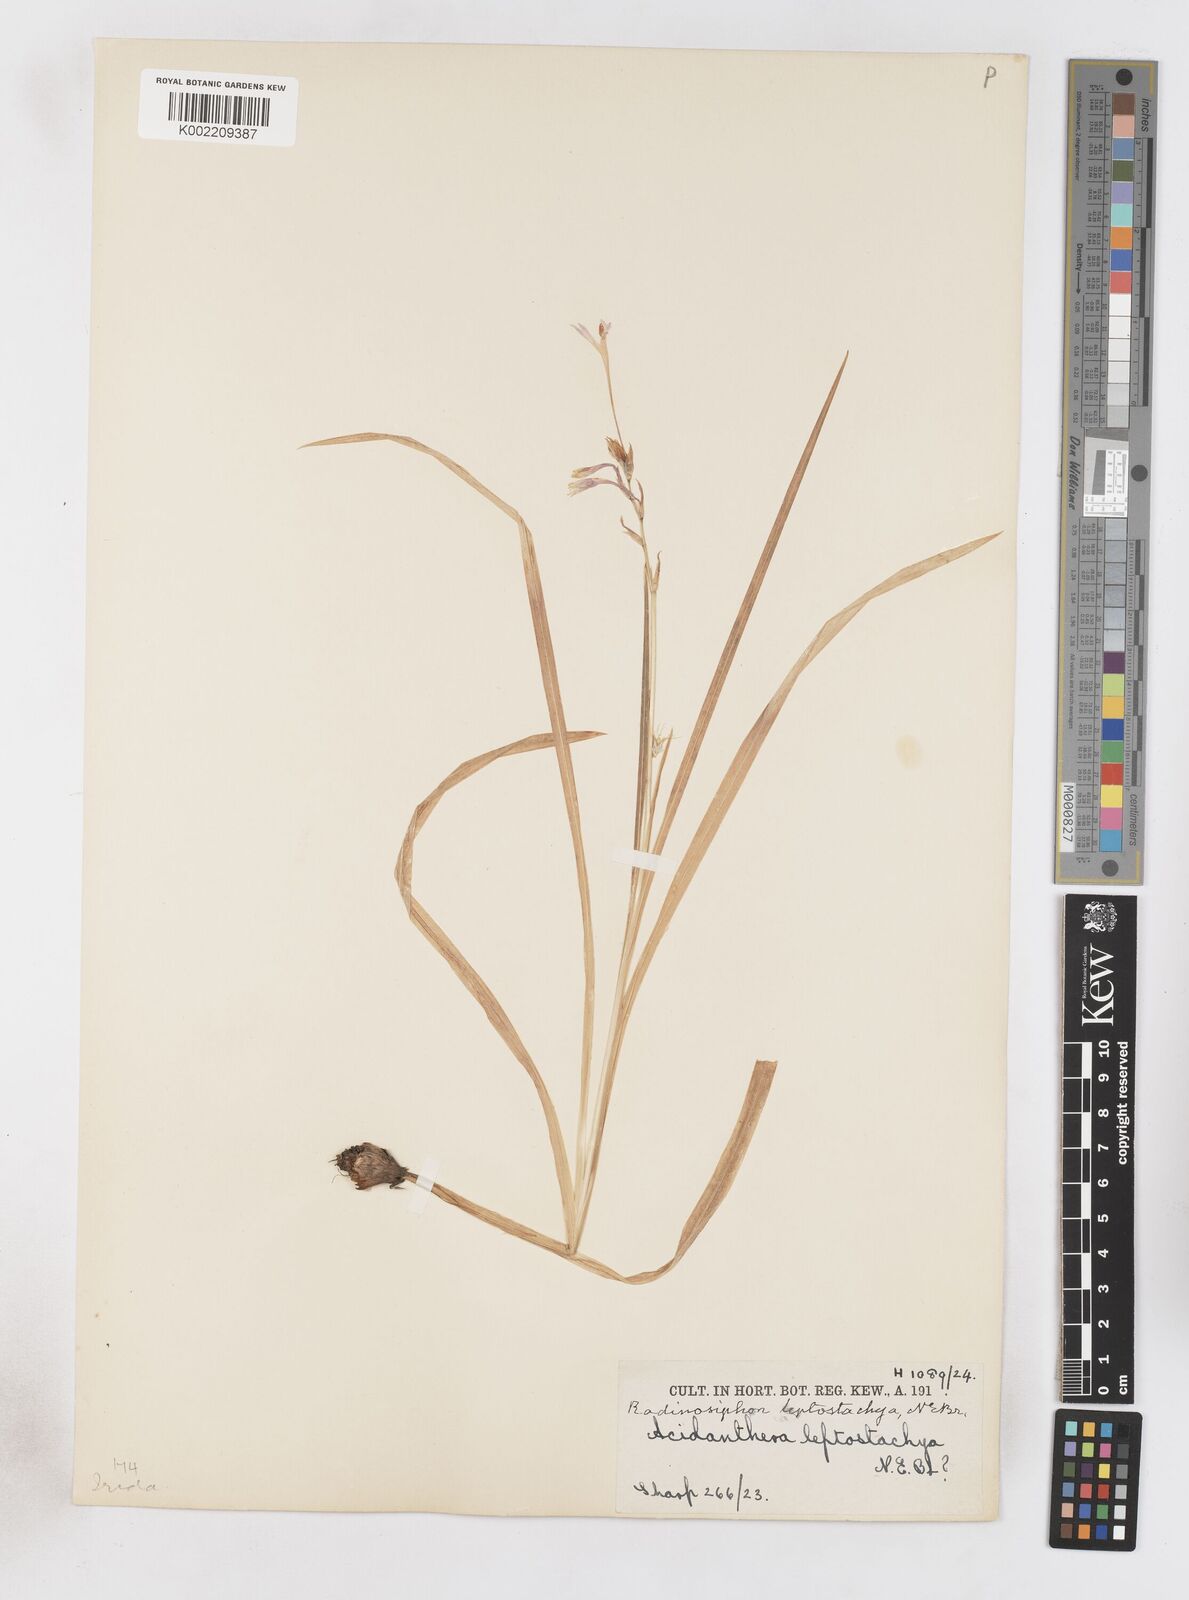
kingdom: Plantae
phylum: Tracheophyta
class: Liliopsida
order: Asparagales
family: Iridaceae
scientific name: Iridaceae
